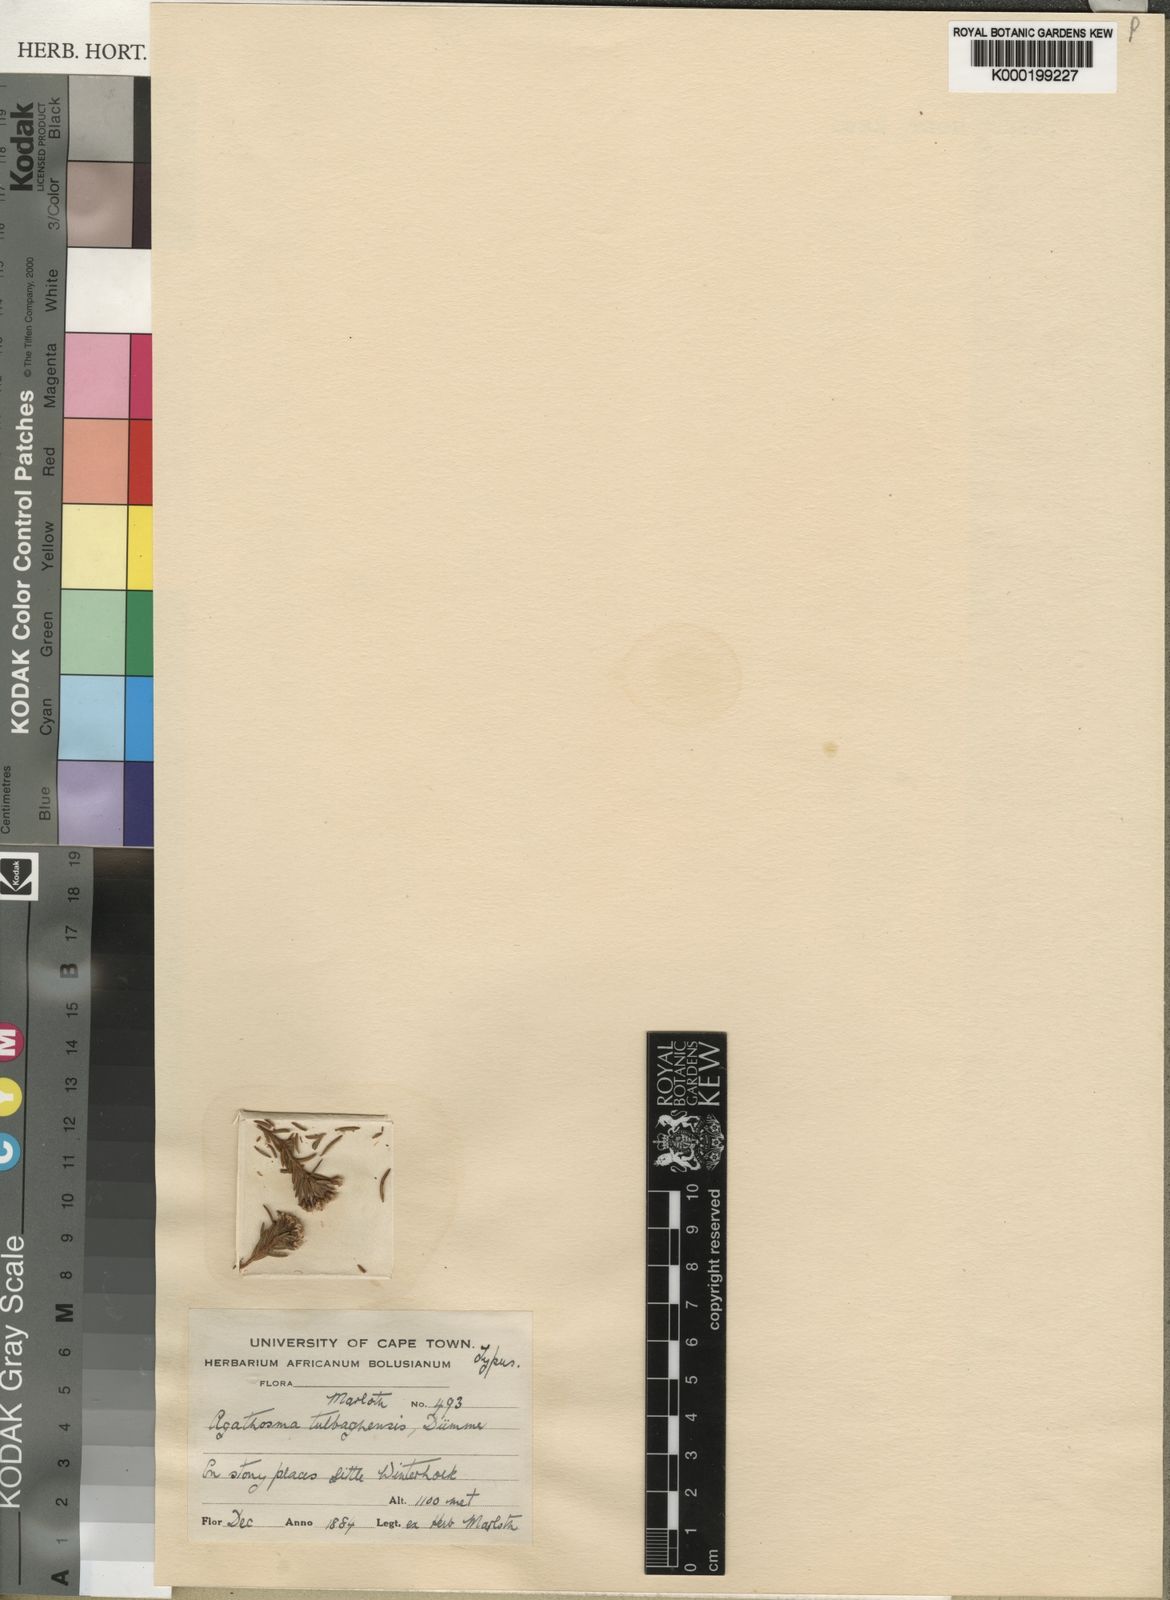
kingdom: Plantae
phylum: Tracheophyta
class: Magnoliopsida
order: Sapindales
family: Rutaceae
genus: Agathosma
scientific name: Agathosma virgata
